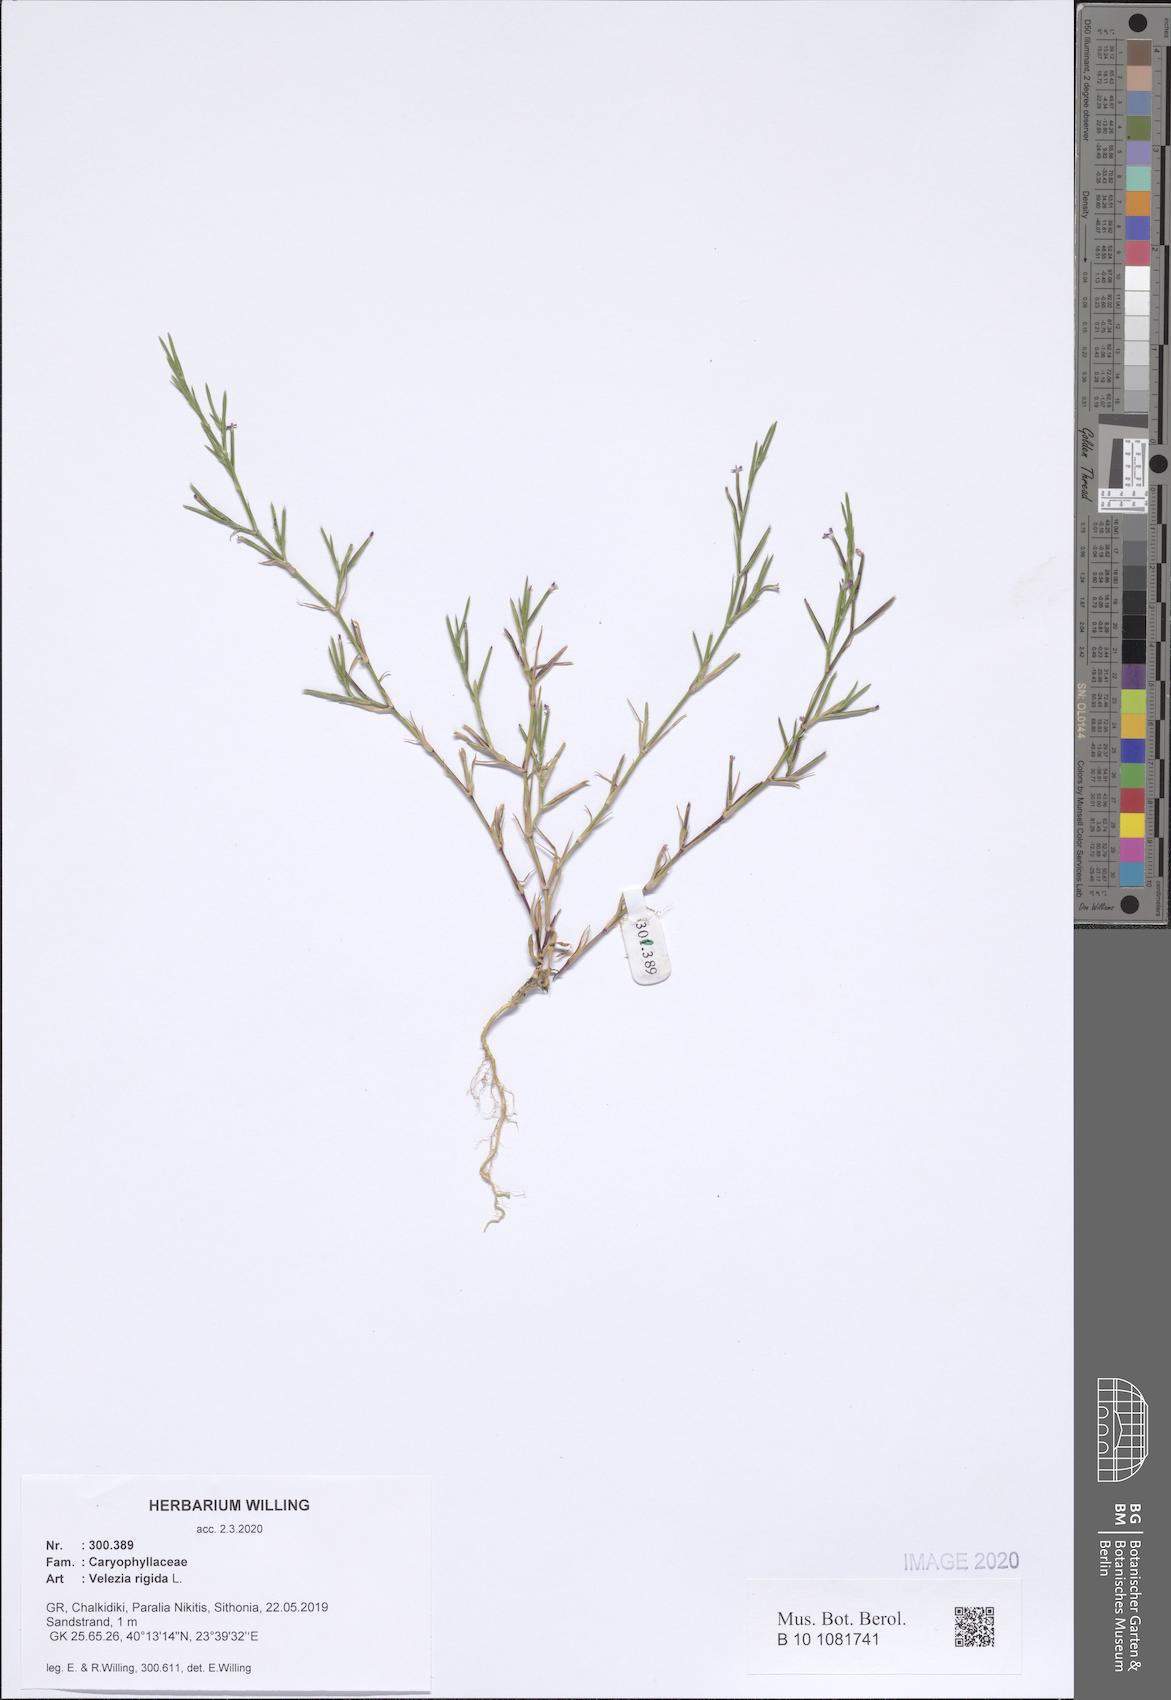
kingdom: Plantae
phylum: Tracheophyta
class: Magnoliopsida
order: Caryophyllales
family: Caryophyllaceae
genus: Dianthus
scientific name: Dianthus nudiflorus
